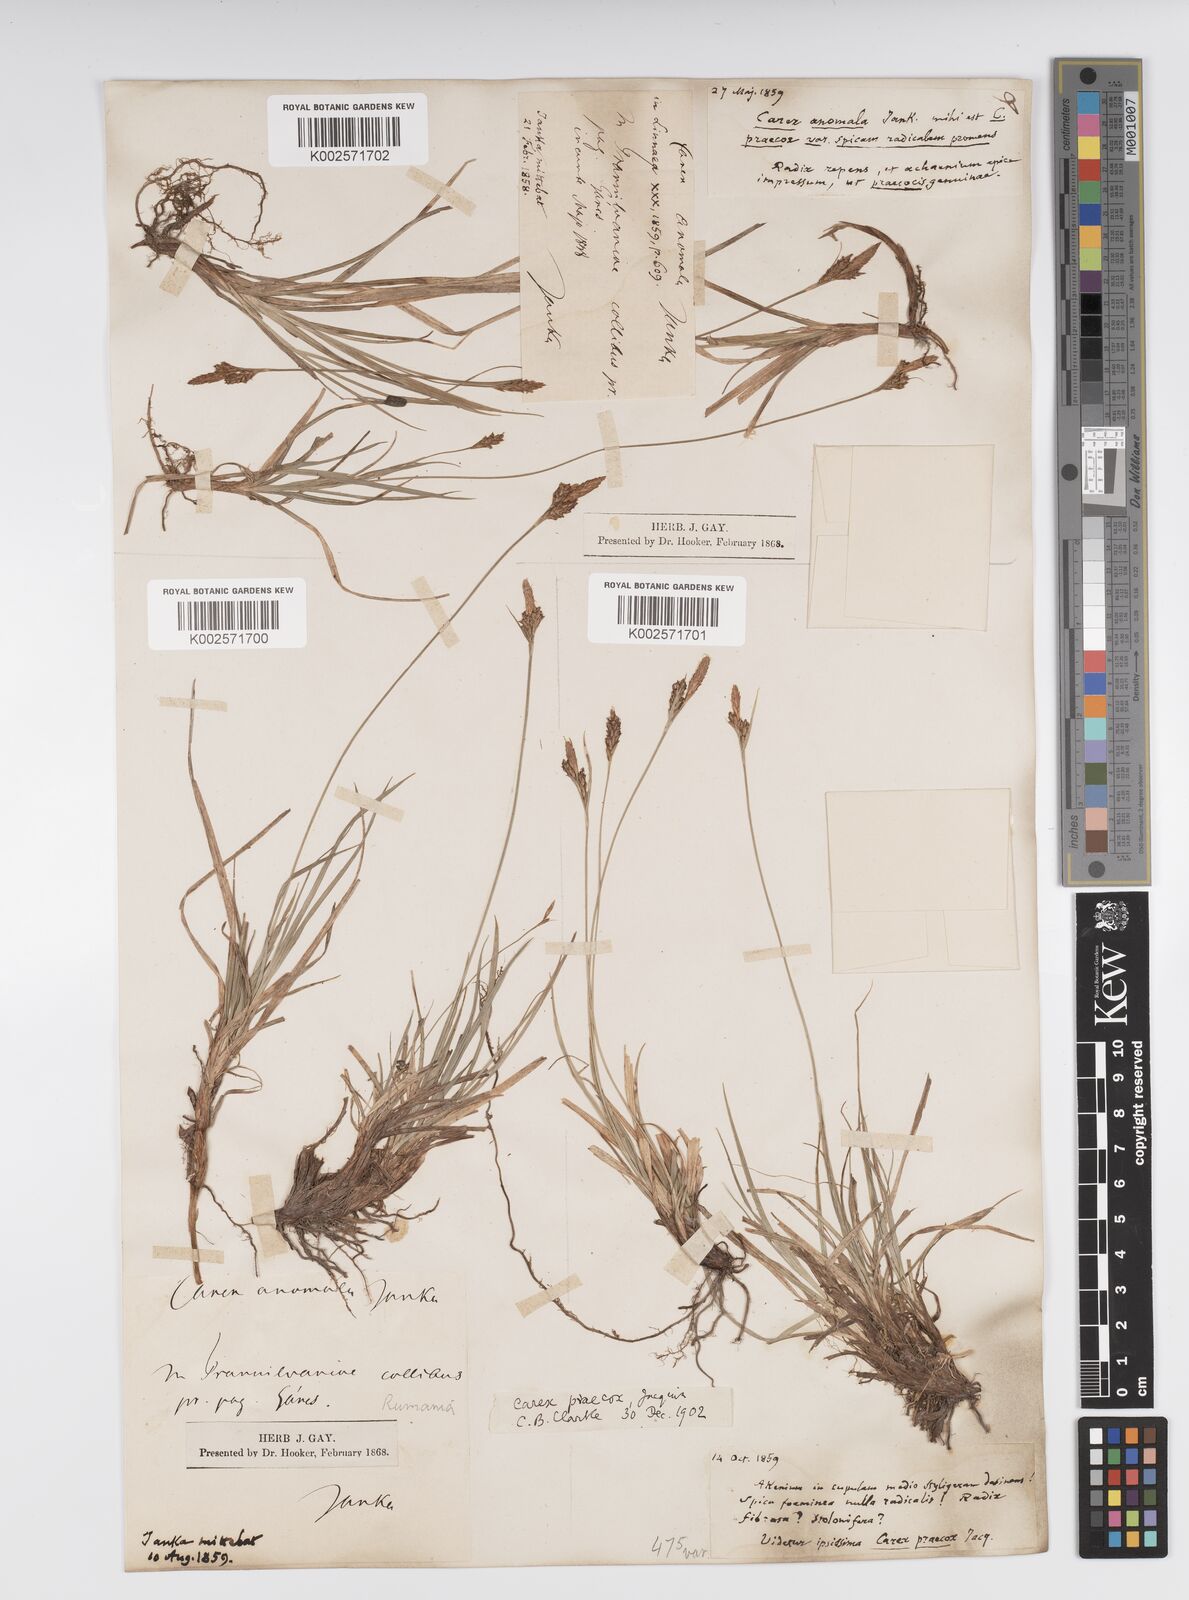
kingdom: Plantae
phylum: Tracheophyta
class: Liliopsida
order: Poales
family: Cyperaceae
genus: Carex
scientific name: Carex caryophyllea
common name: Spring sedge
